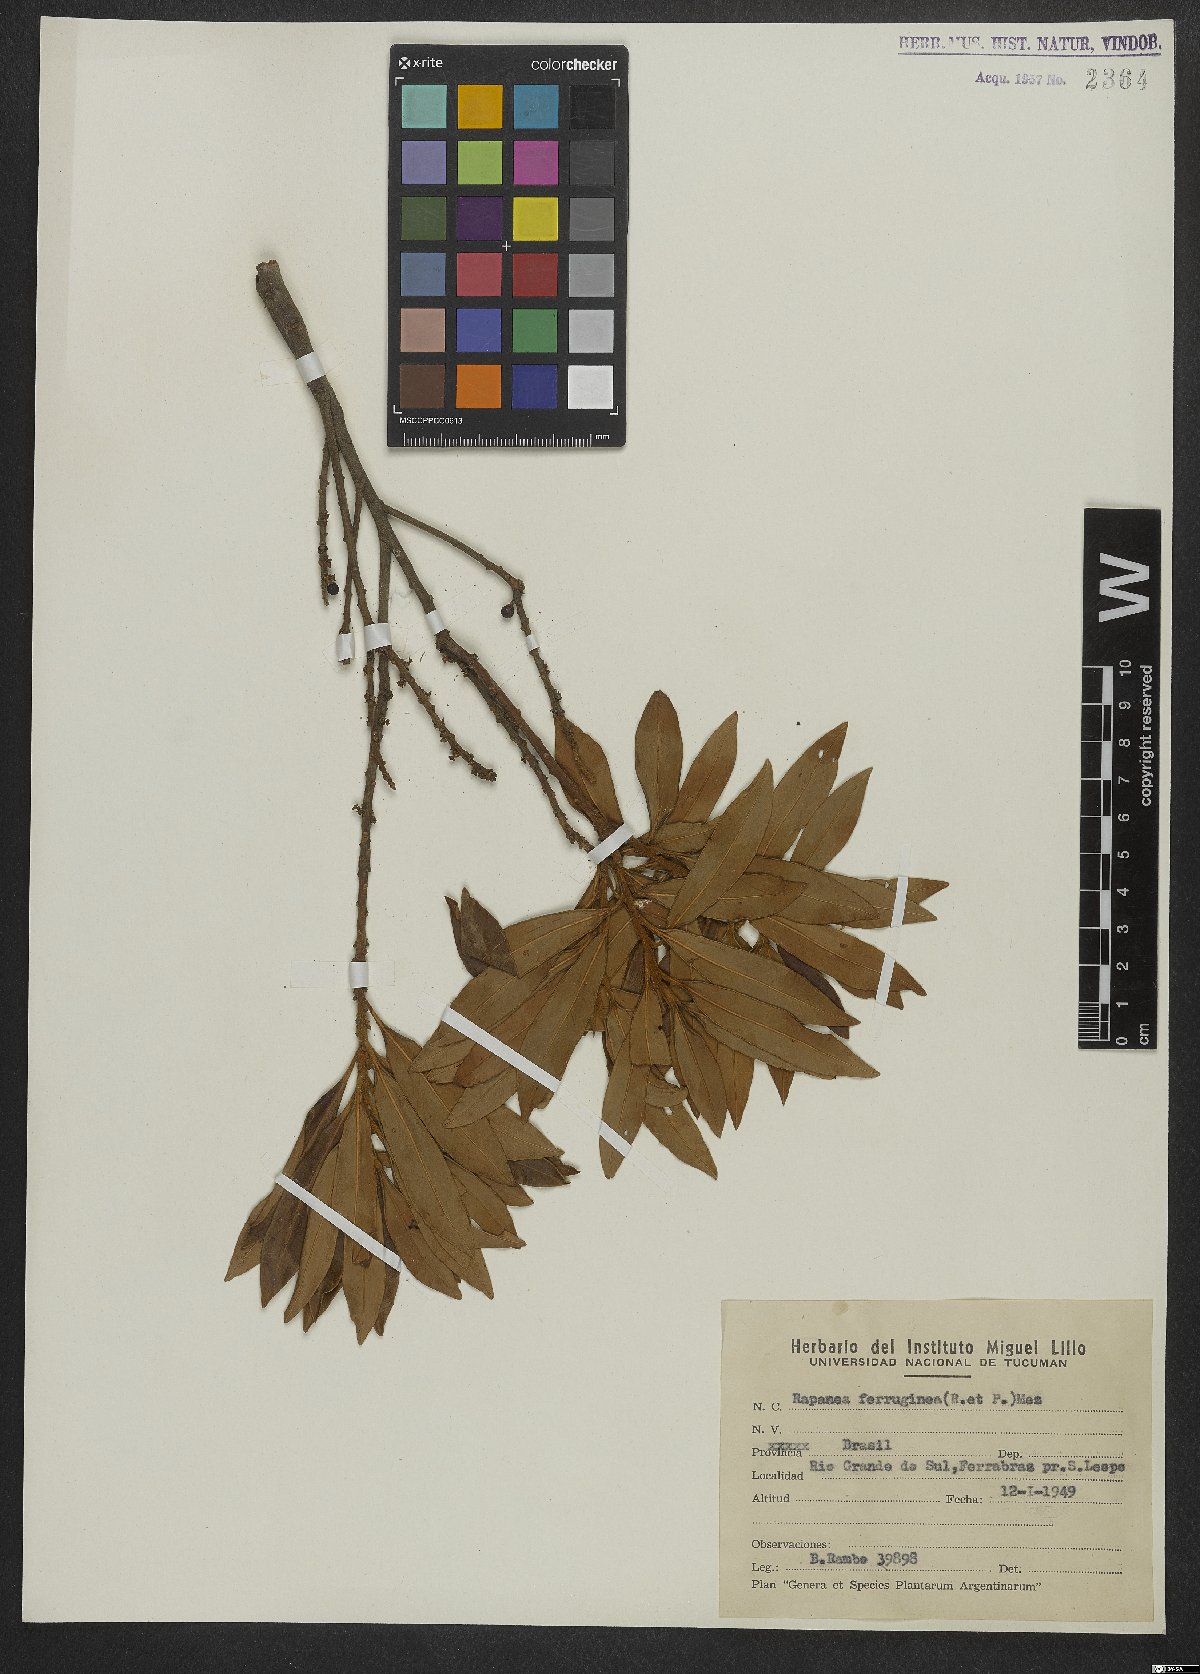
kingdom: Plantae
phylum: Tracheophyta
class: Magnoliopsida
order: Ericales
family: Primulaceae
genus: Myrsine
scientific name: Myrsine coriacea
